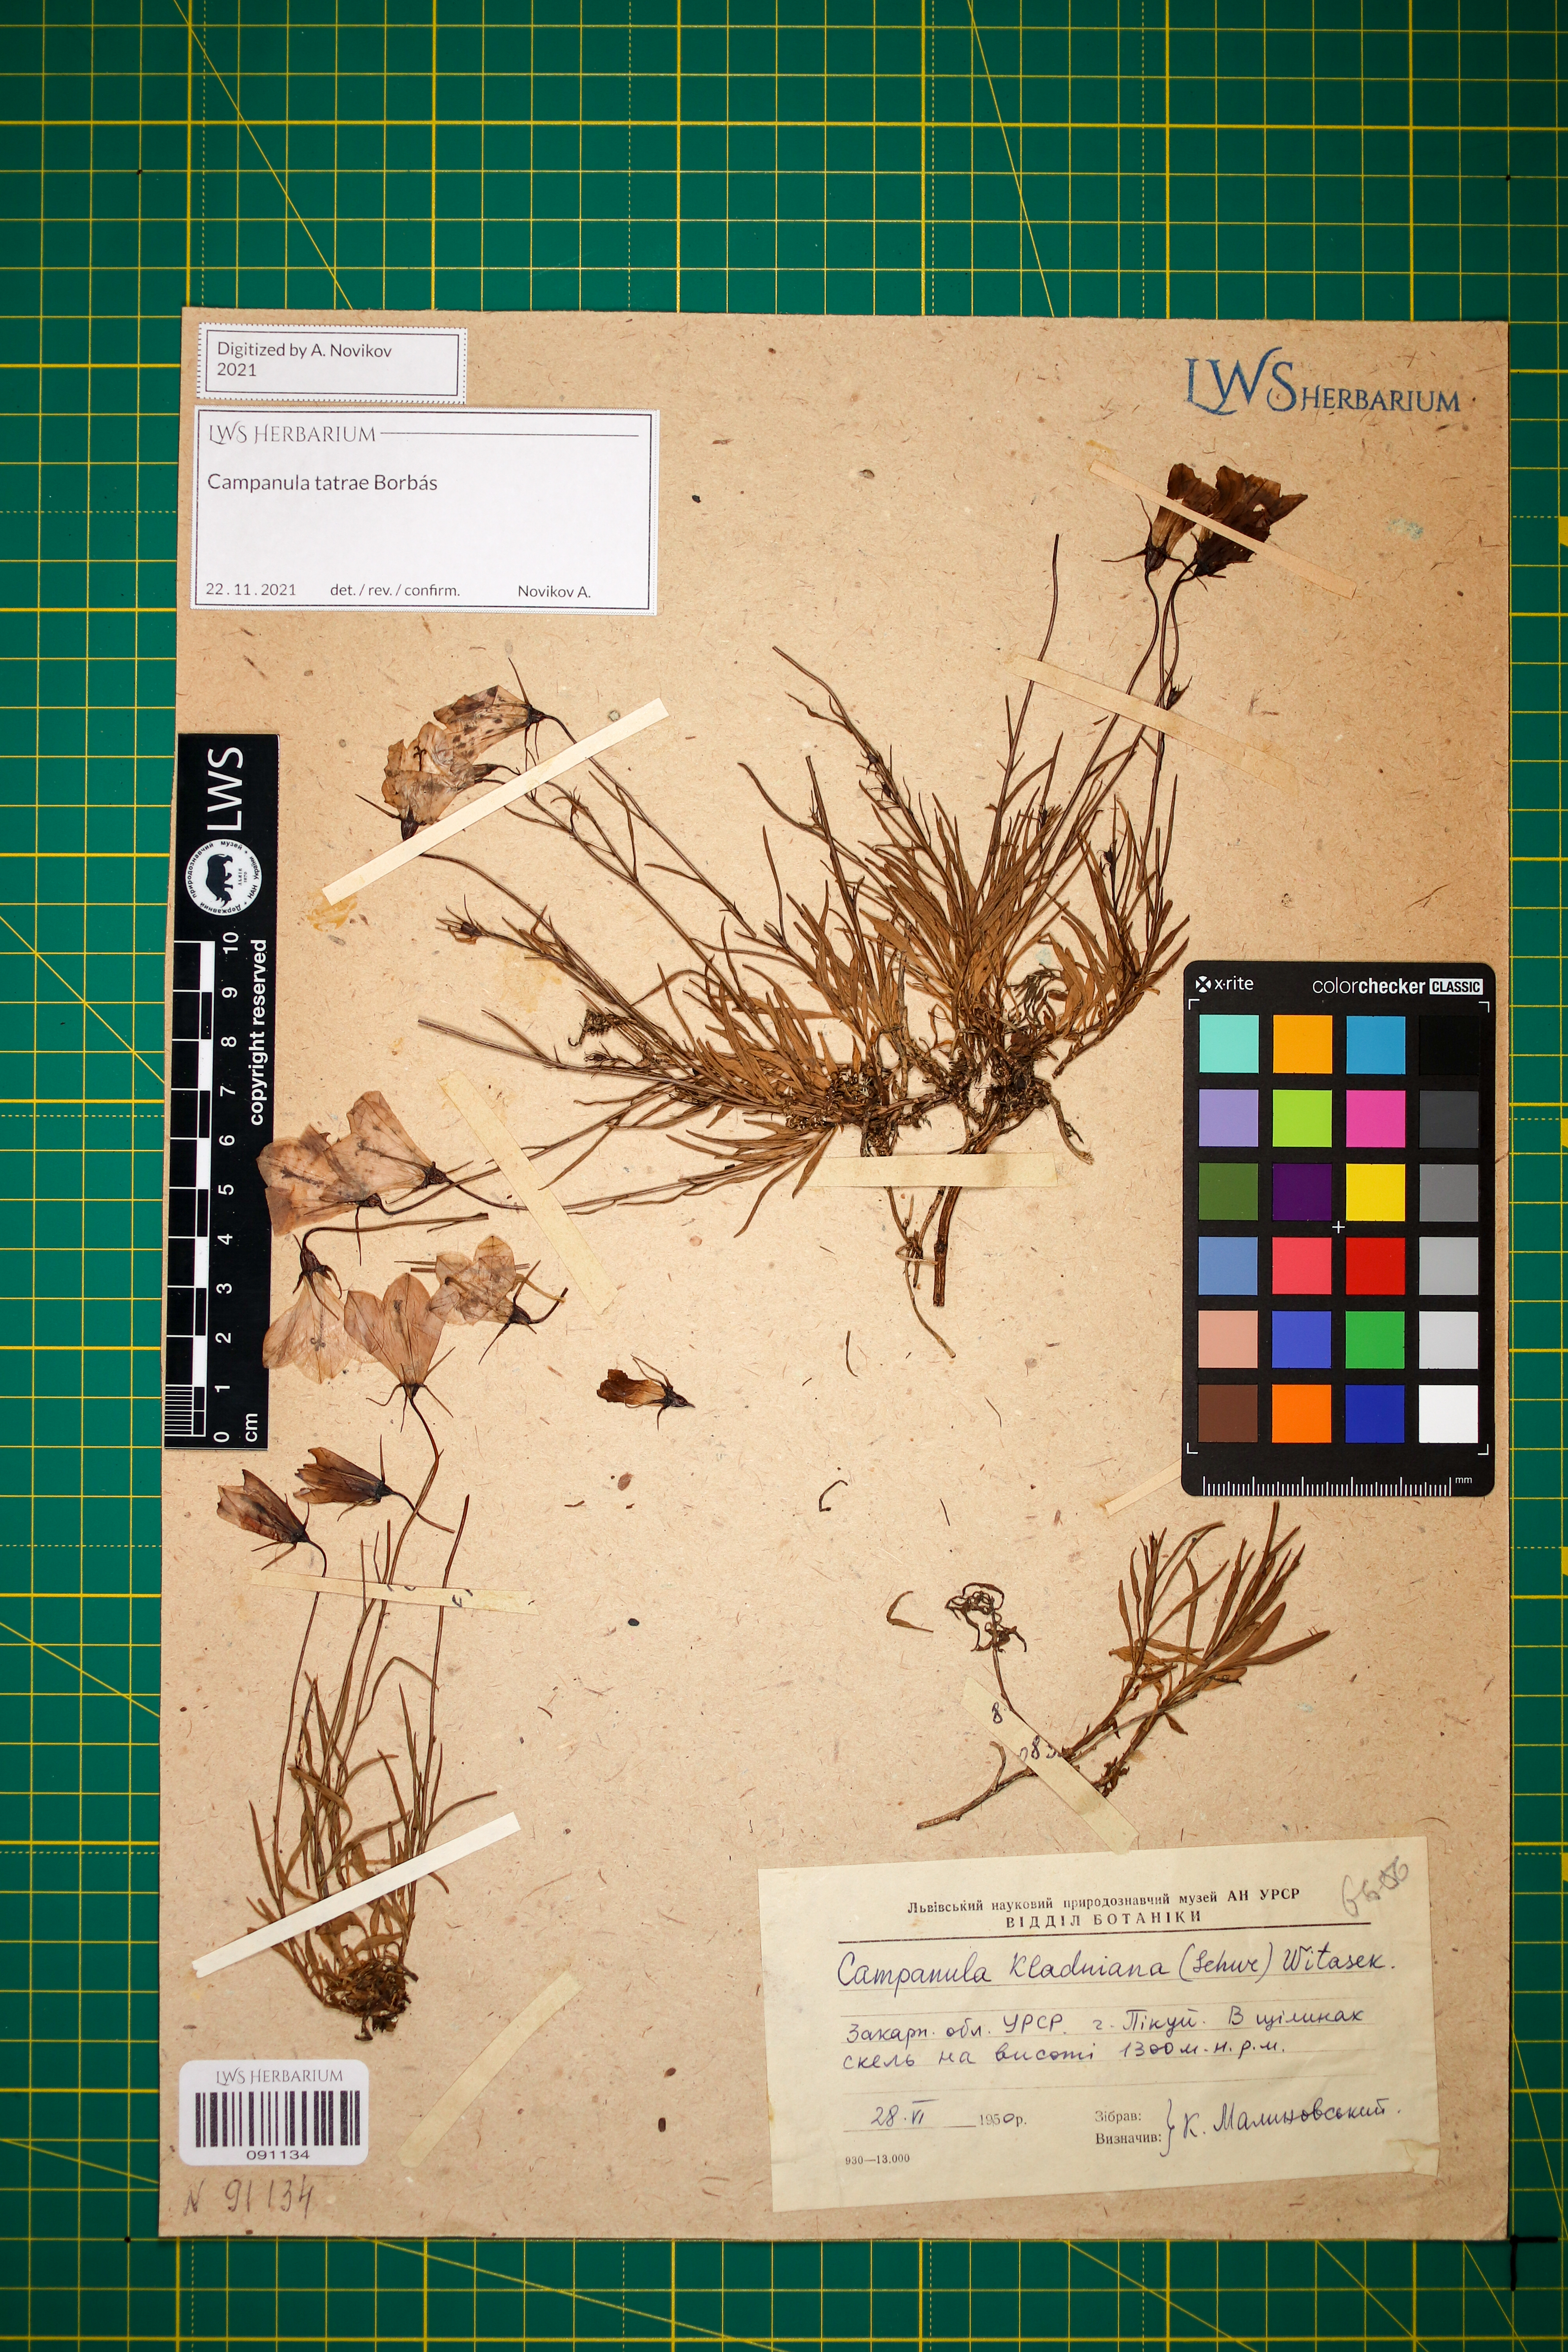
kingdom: Plantae
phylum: Tracheophyta
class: Magnoliopsida
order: Asterales
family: Campanulaceae
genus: Campanula
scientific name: Campanula kladniana
